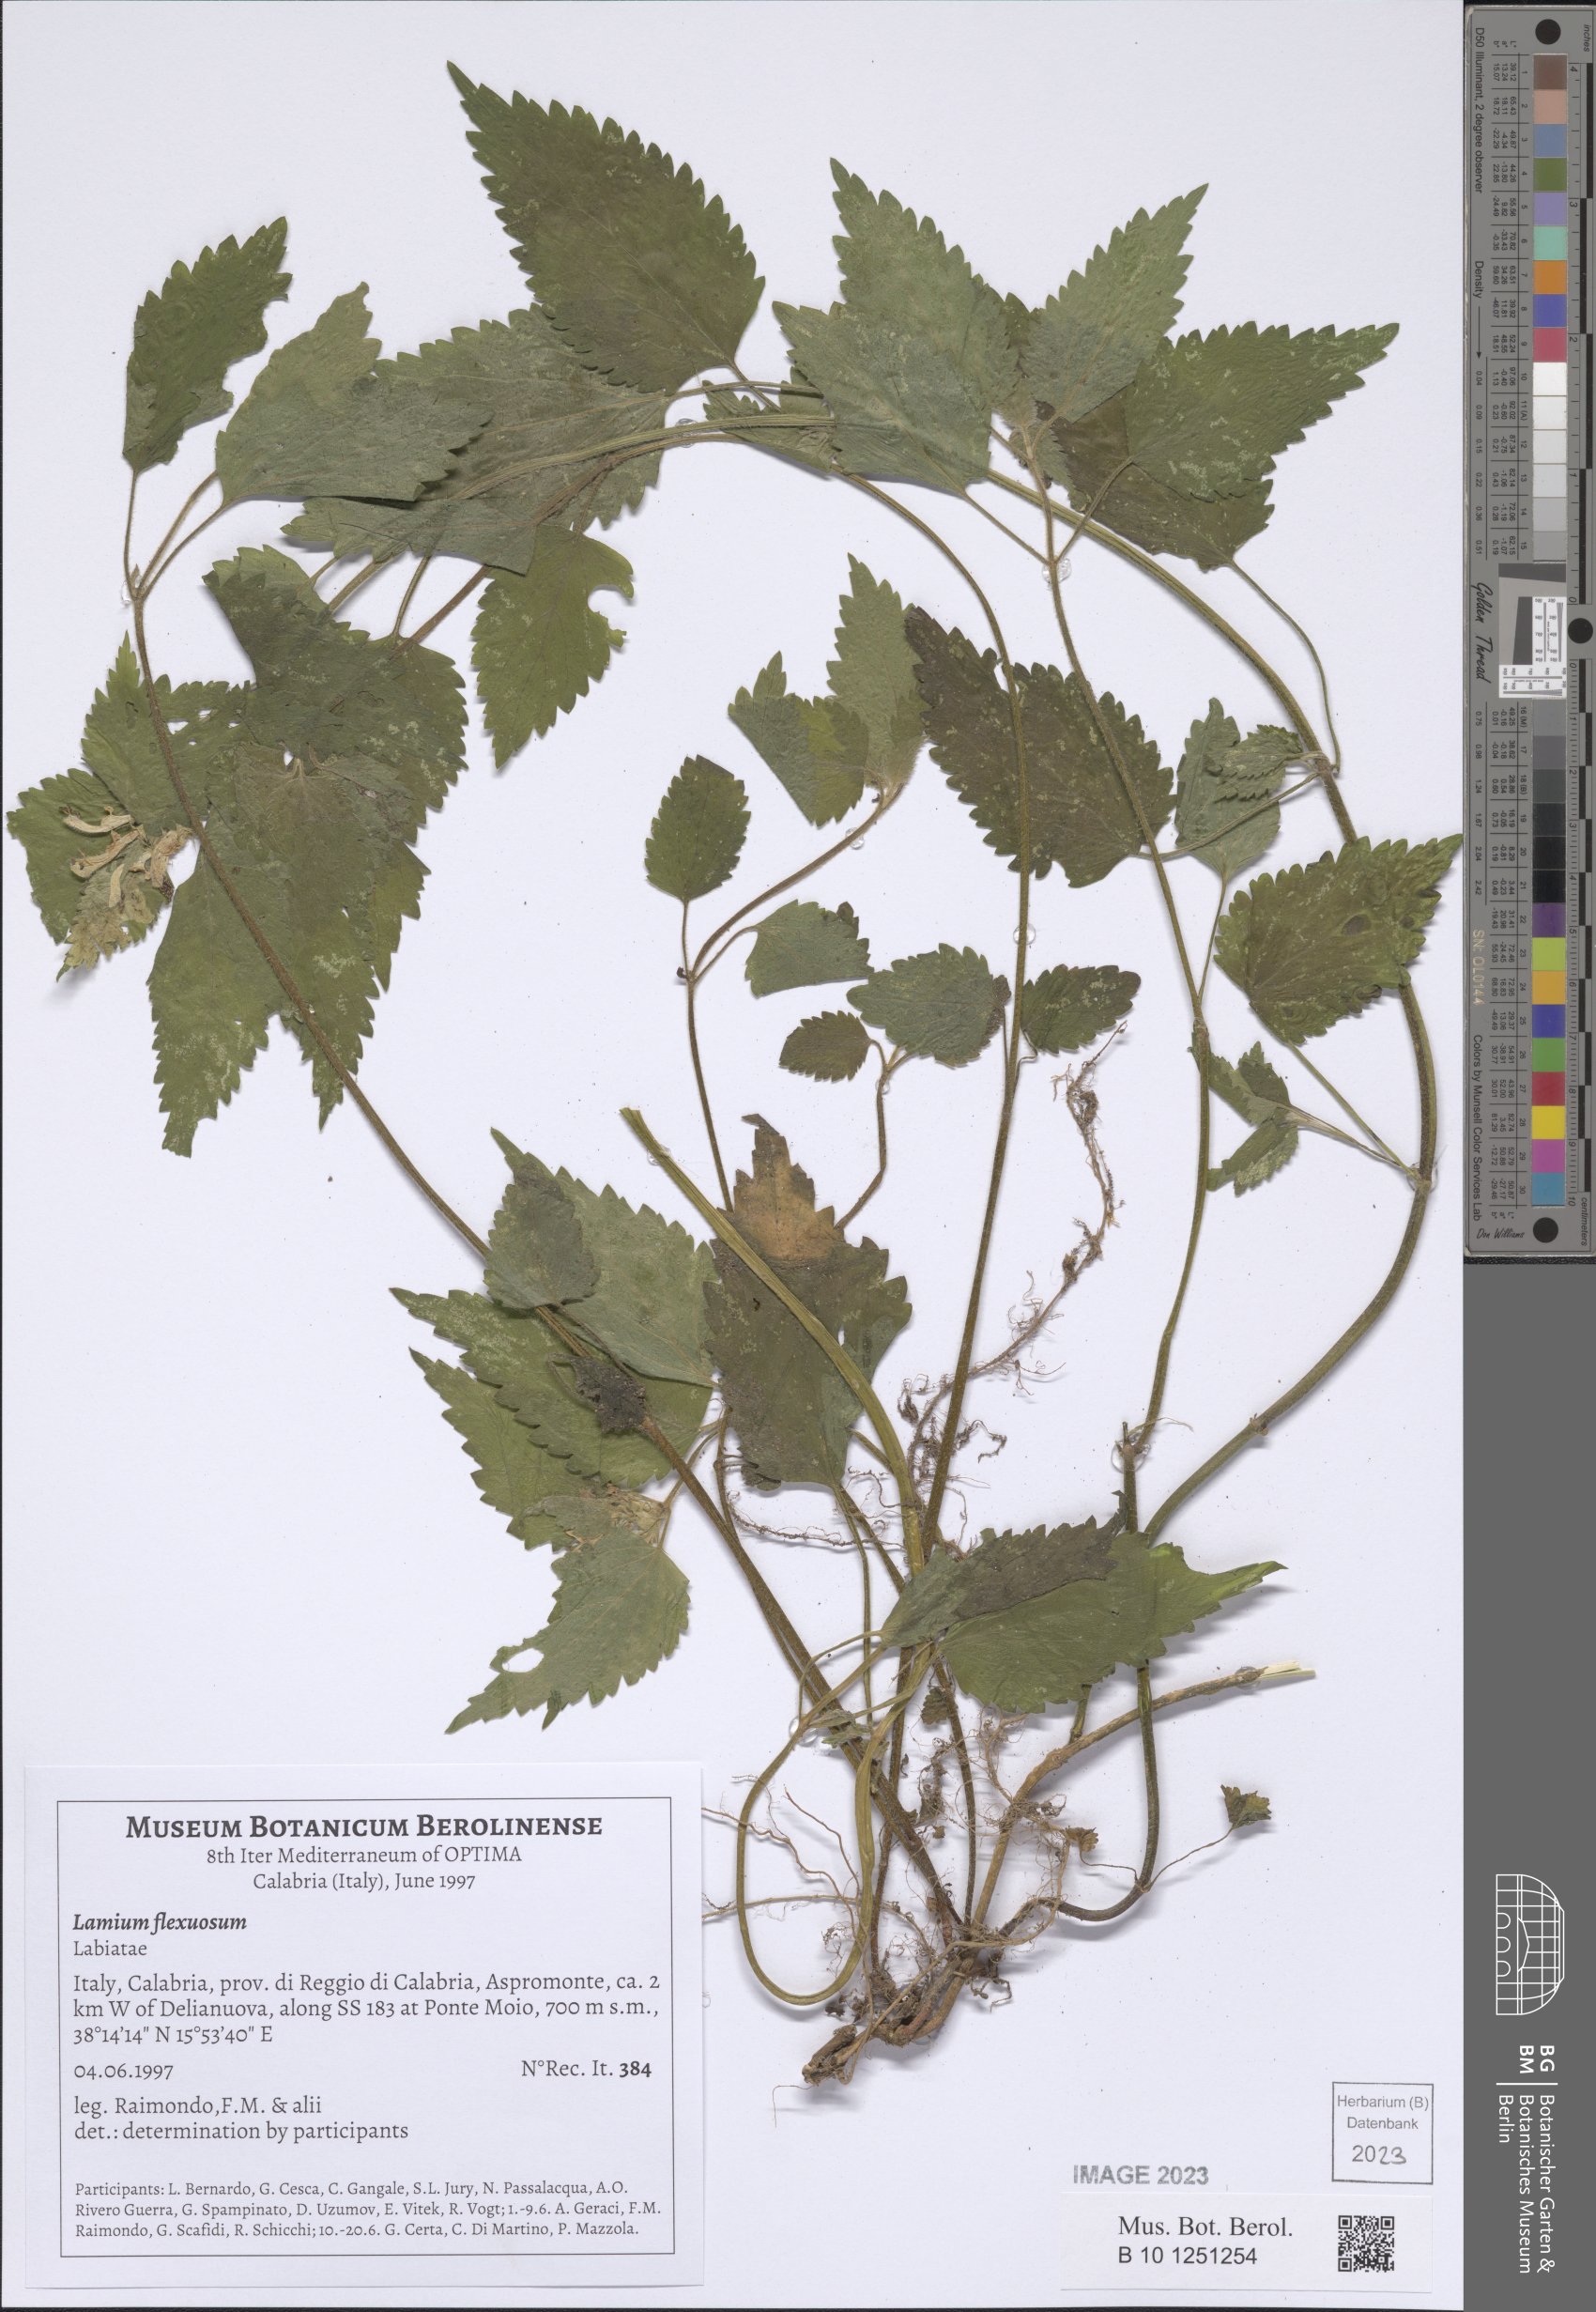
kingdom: Plantae
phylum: Tracheophyta
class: Magnoliopsida
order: Lamiales
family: Lamiaceae
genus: Lamium
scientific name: Lamium flexuosum
